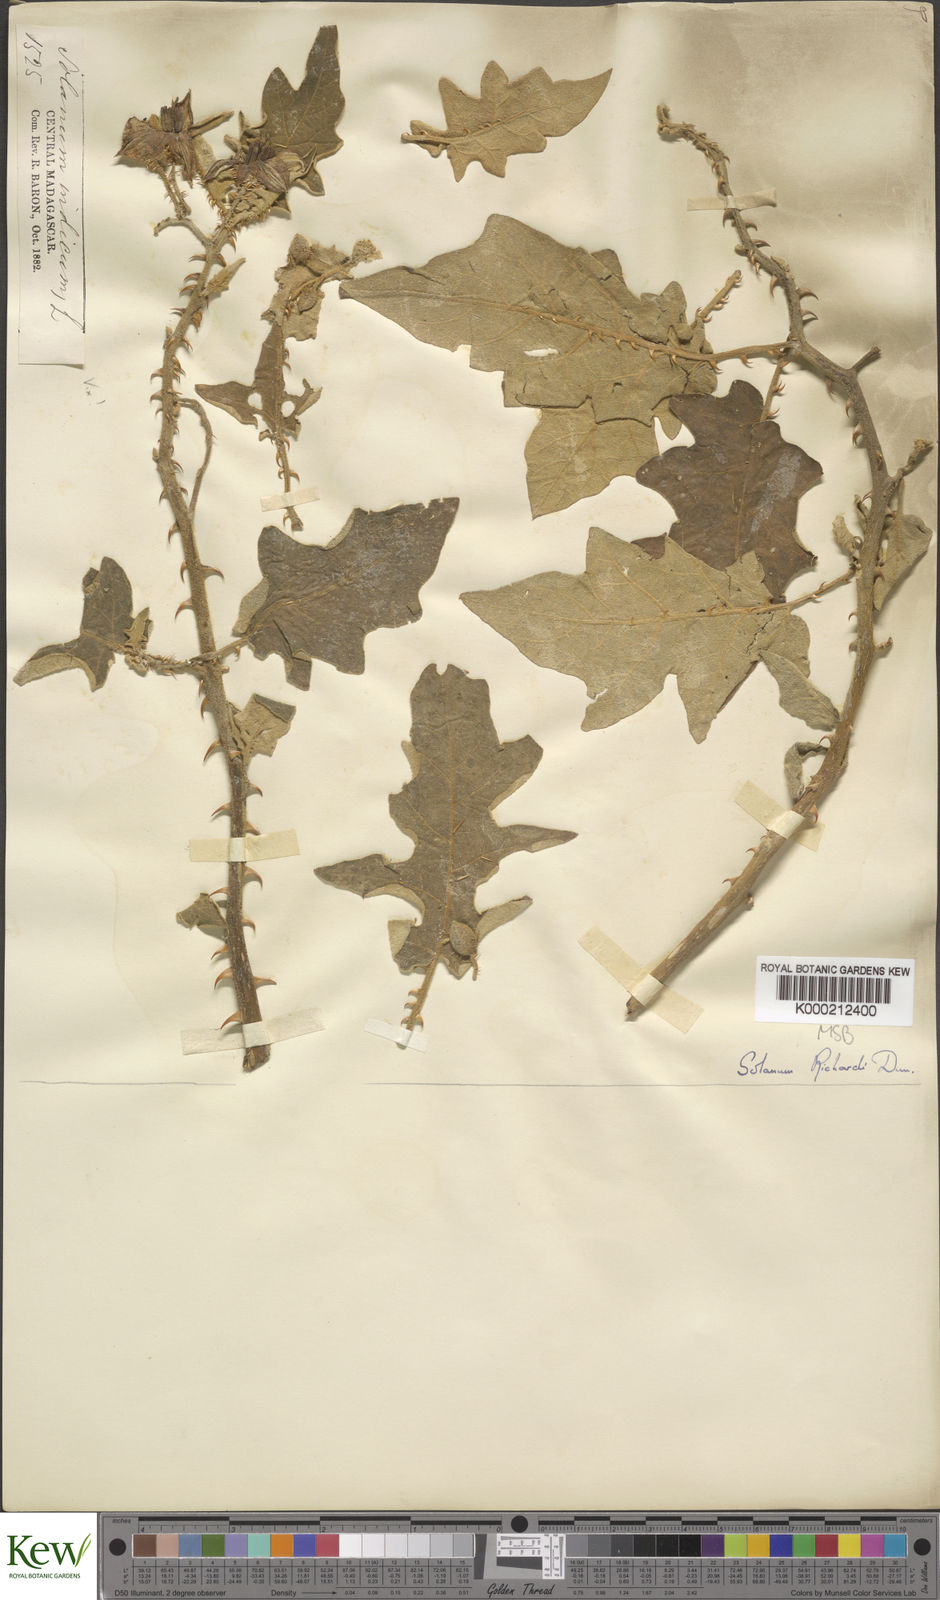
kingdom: Plantae
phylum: Tracheophyta
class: Magnoliopsida
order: Solanales
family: Solanaceae
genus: Solanum
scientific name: Solanum richardii
